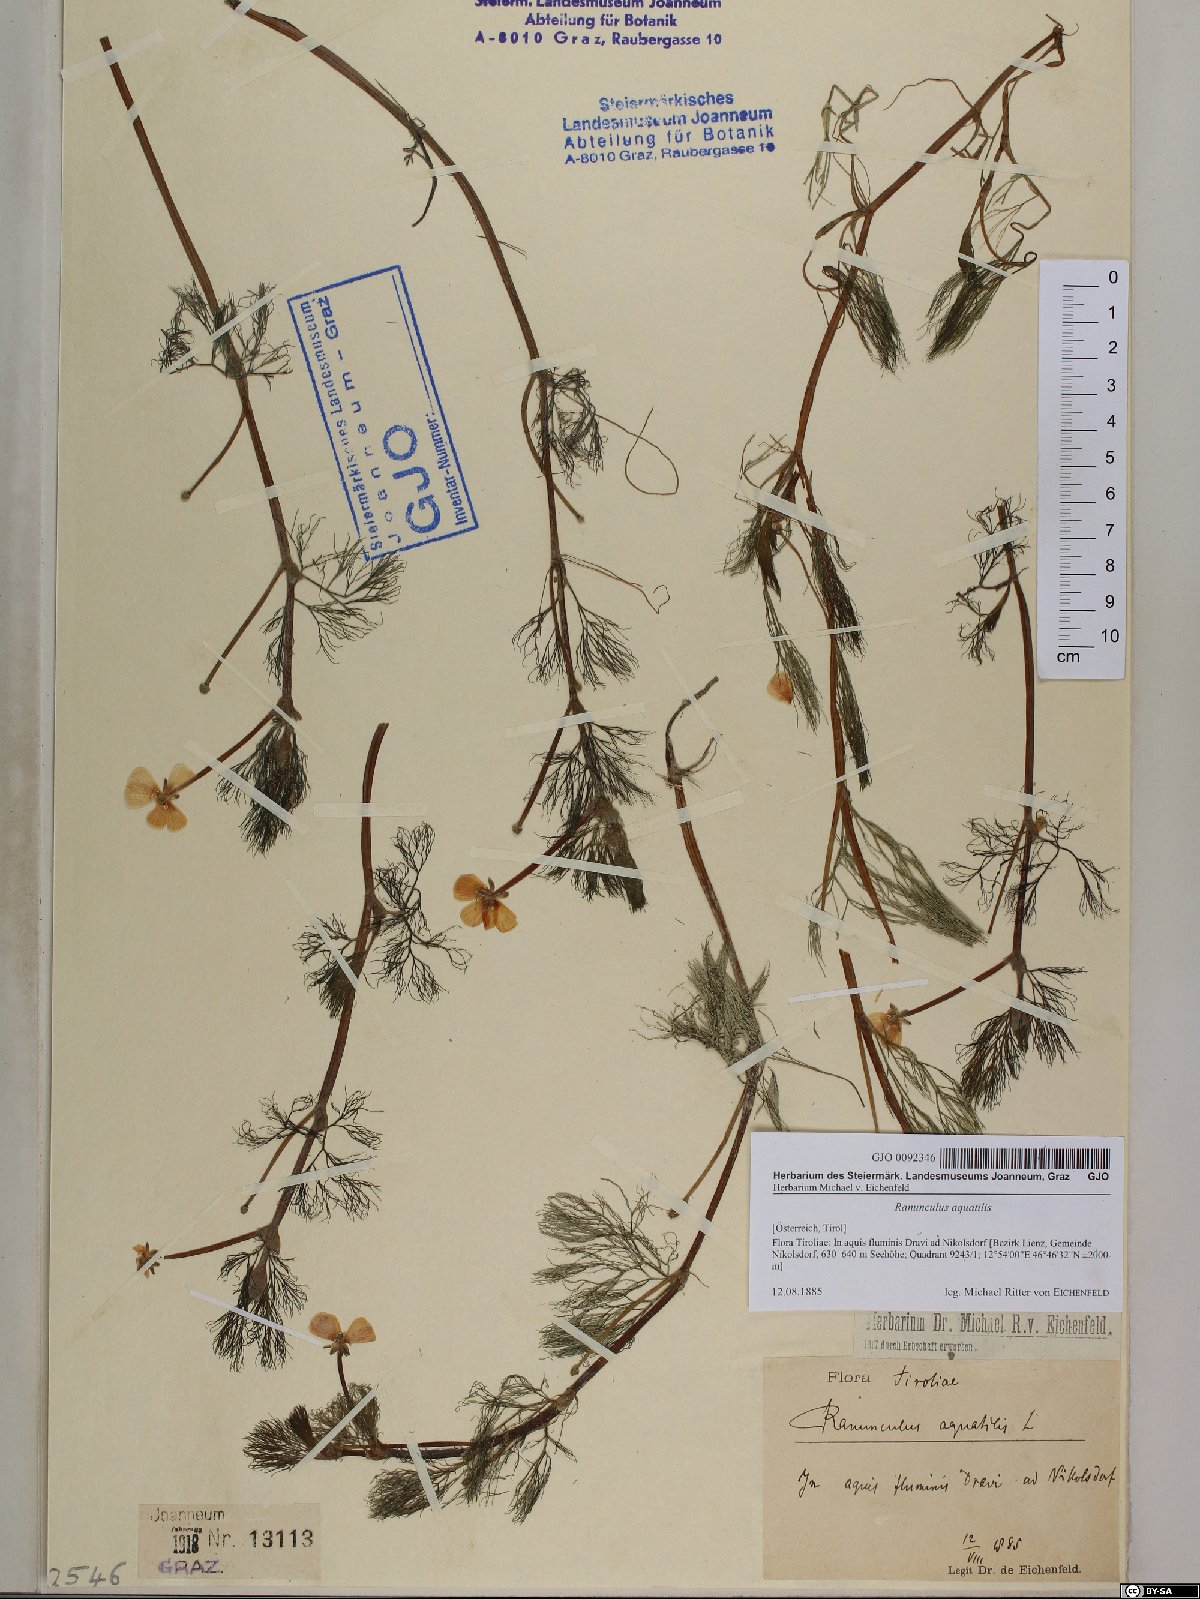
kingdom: Plantae
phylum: Tracheophyta
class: Magnoliopsida
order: Ranunculales
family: Ranunculaceae
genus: Ranunculus
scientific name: Ranunculus aquatilis
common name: Common water-crowfoot
